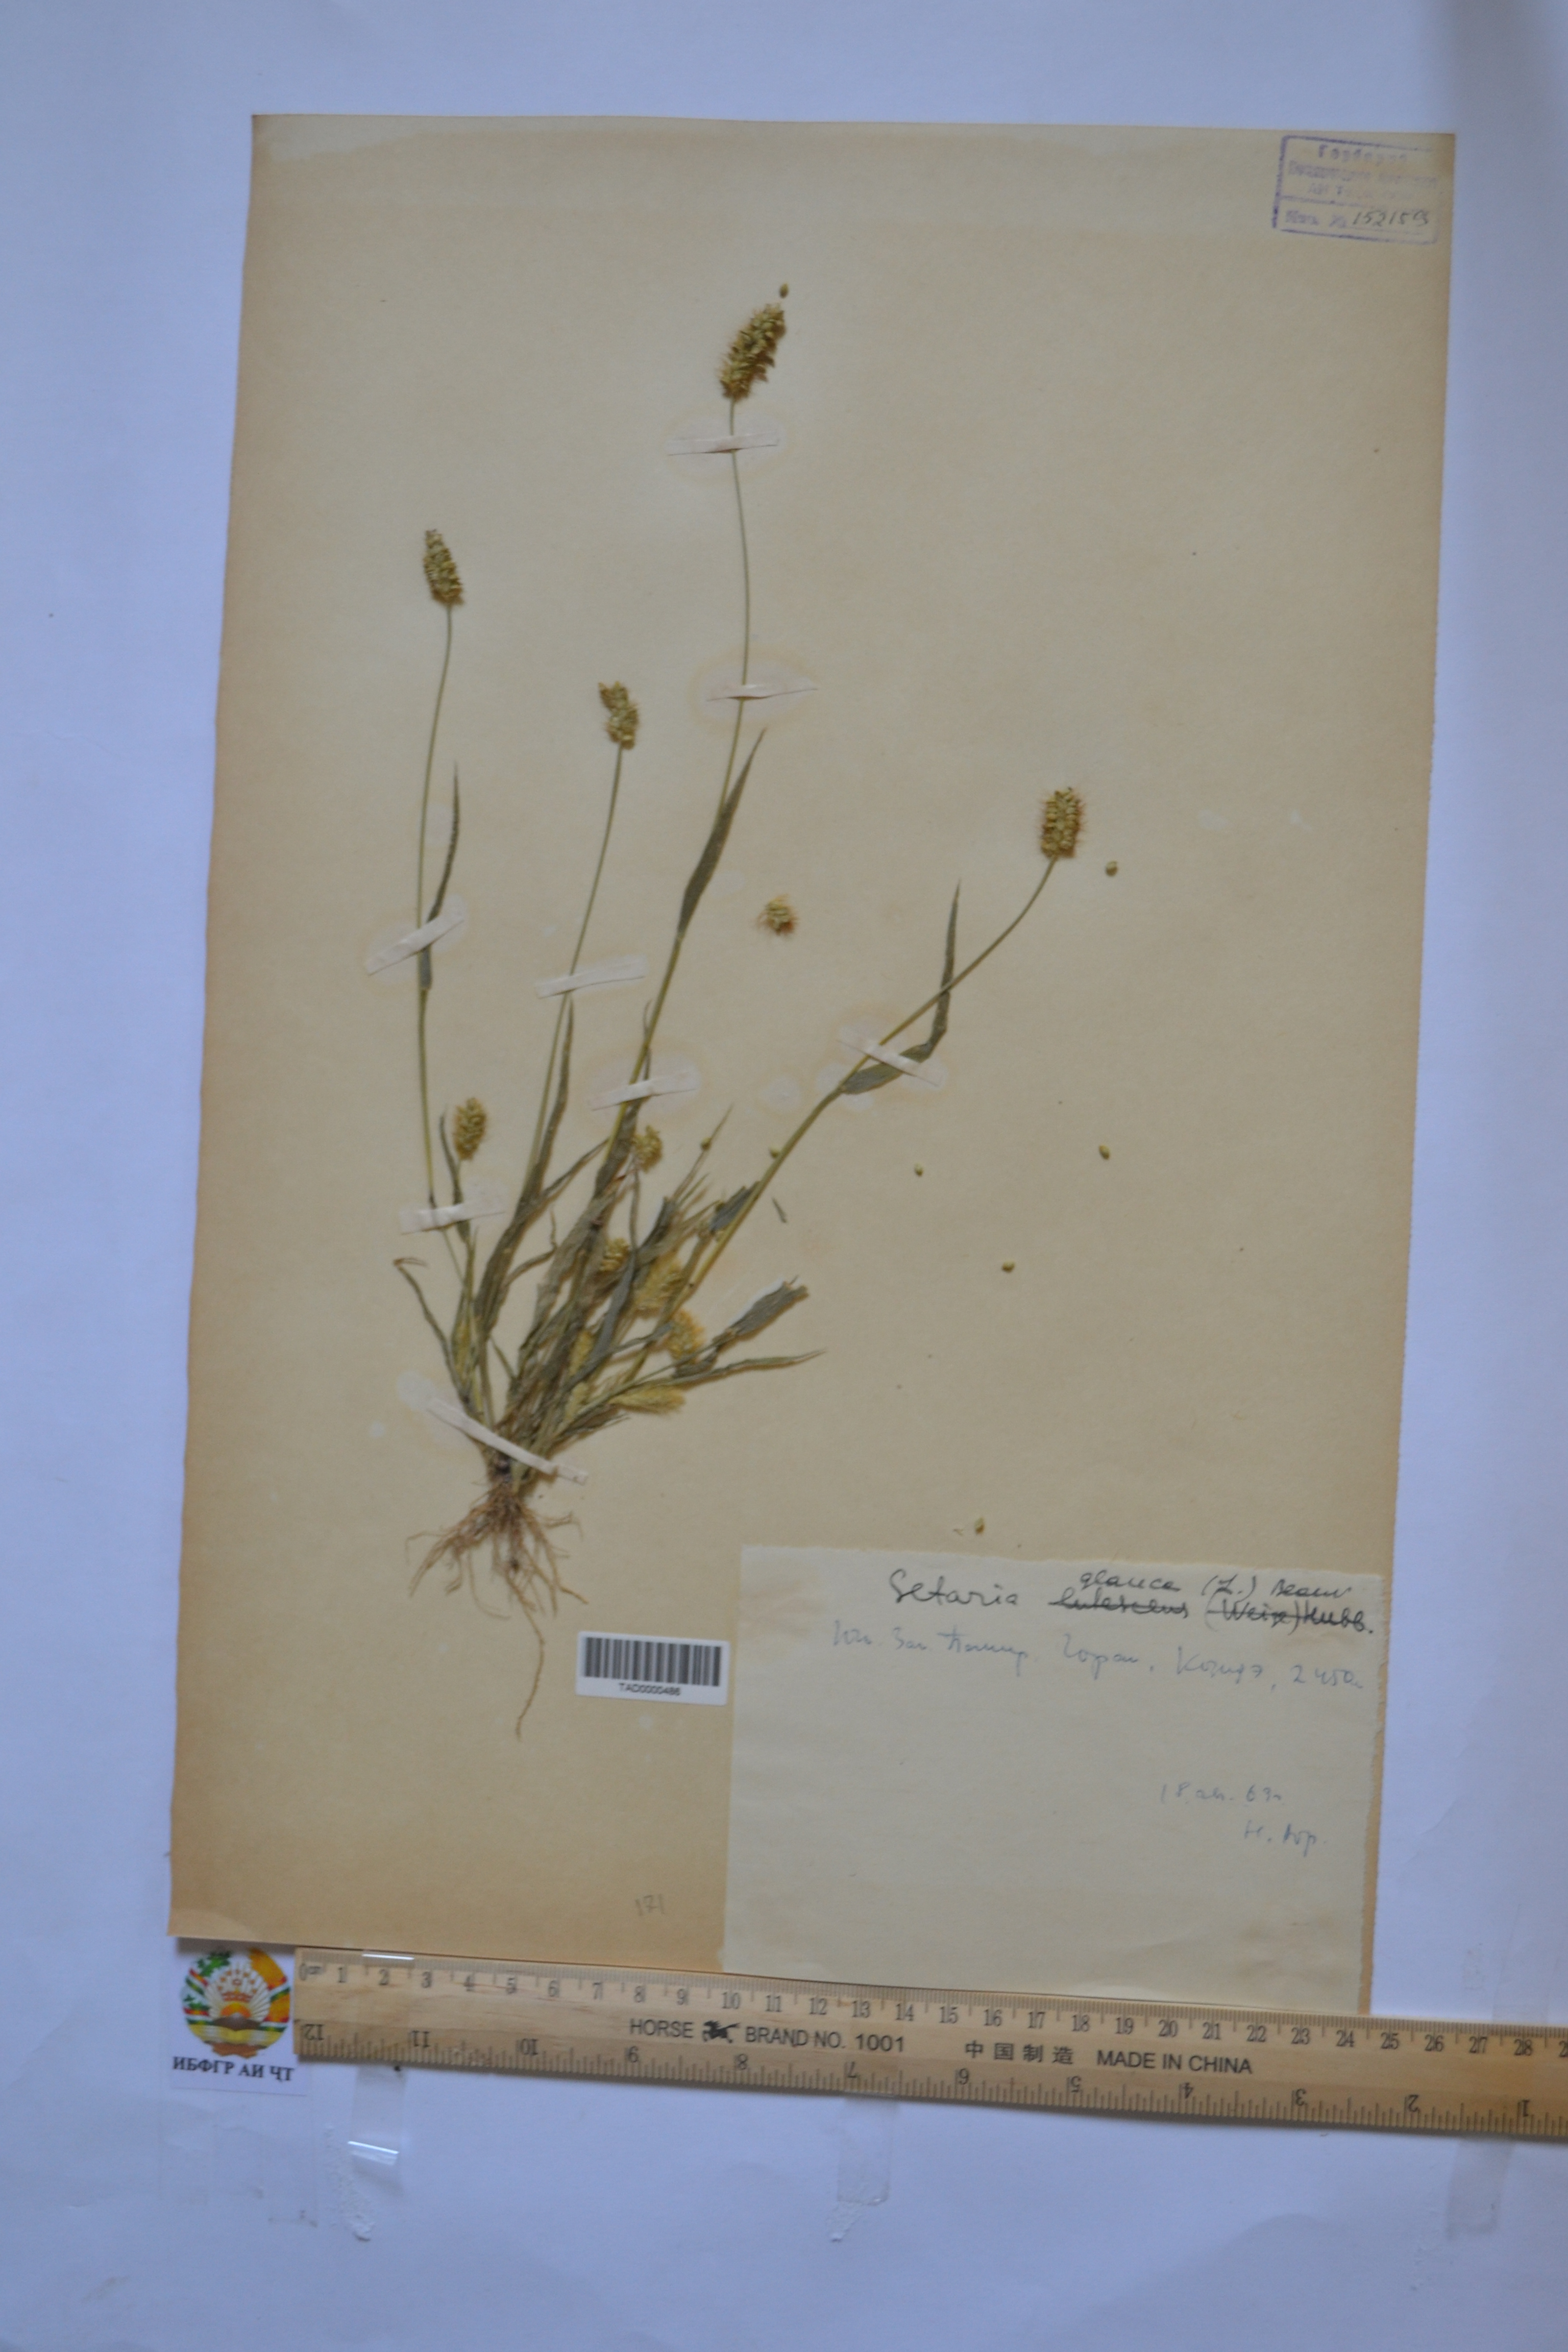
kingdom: Plantae
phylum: Tracheophyta
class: Liliopsida
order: Poales
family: Poaceae
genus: Cenchrus
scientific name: Cenchrus americanus
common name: Pearl millet
